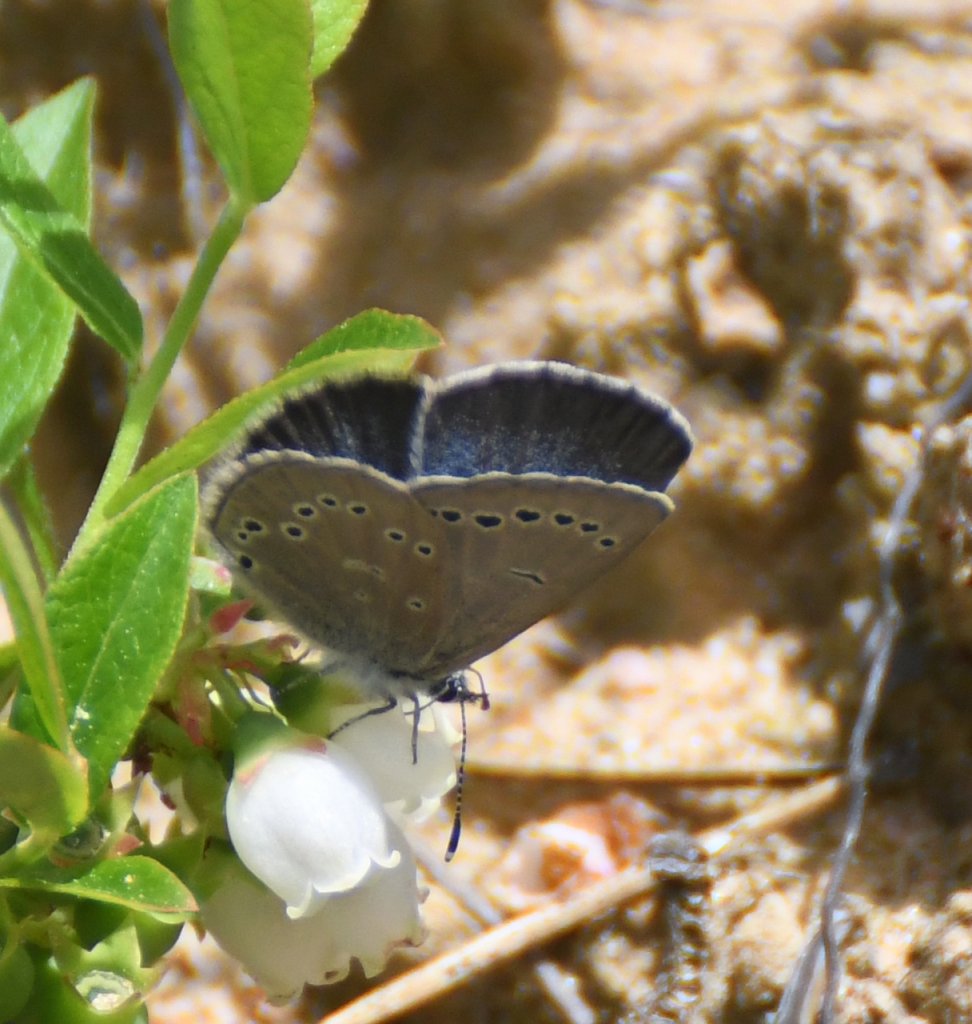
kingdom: Animalia
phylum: Arthropoda
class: Insecta
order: Lepidoptera
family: Lycaenidae
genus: Glaucopsyche
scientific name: Glaucopsyche lygdamus
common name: Silvery Blue
